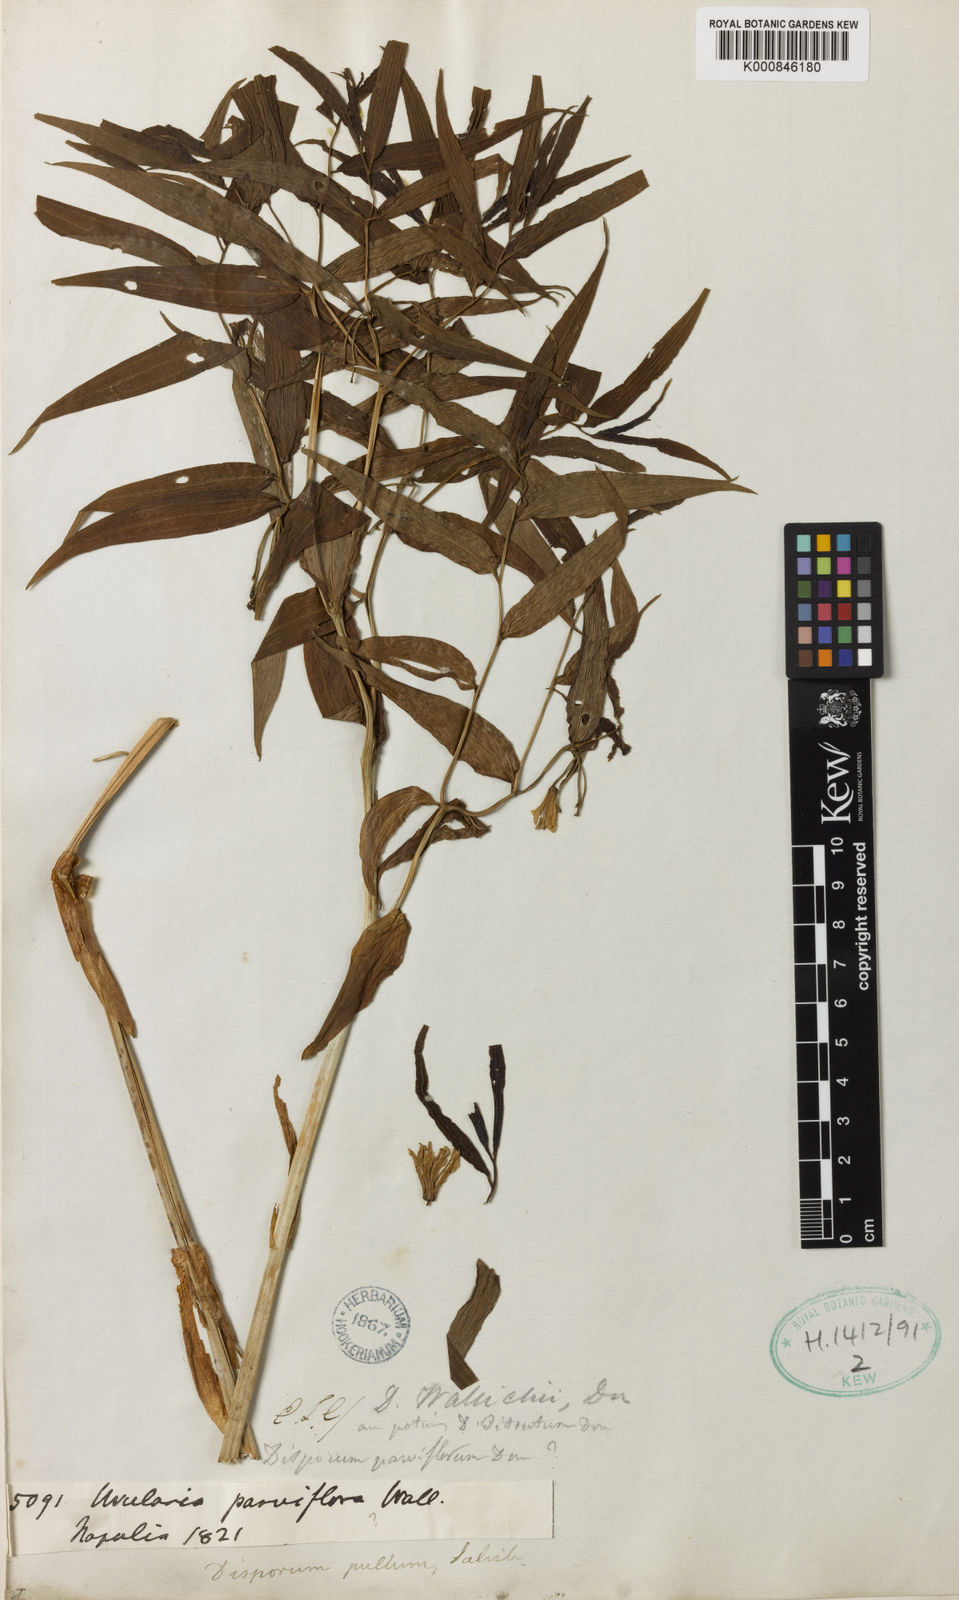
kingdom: Plantae
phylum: Tracheophyta
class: Liliopsida
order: Liliales
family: Colchicaceae
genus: Disporum
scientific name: Disporum cantoniense
